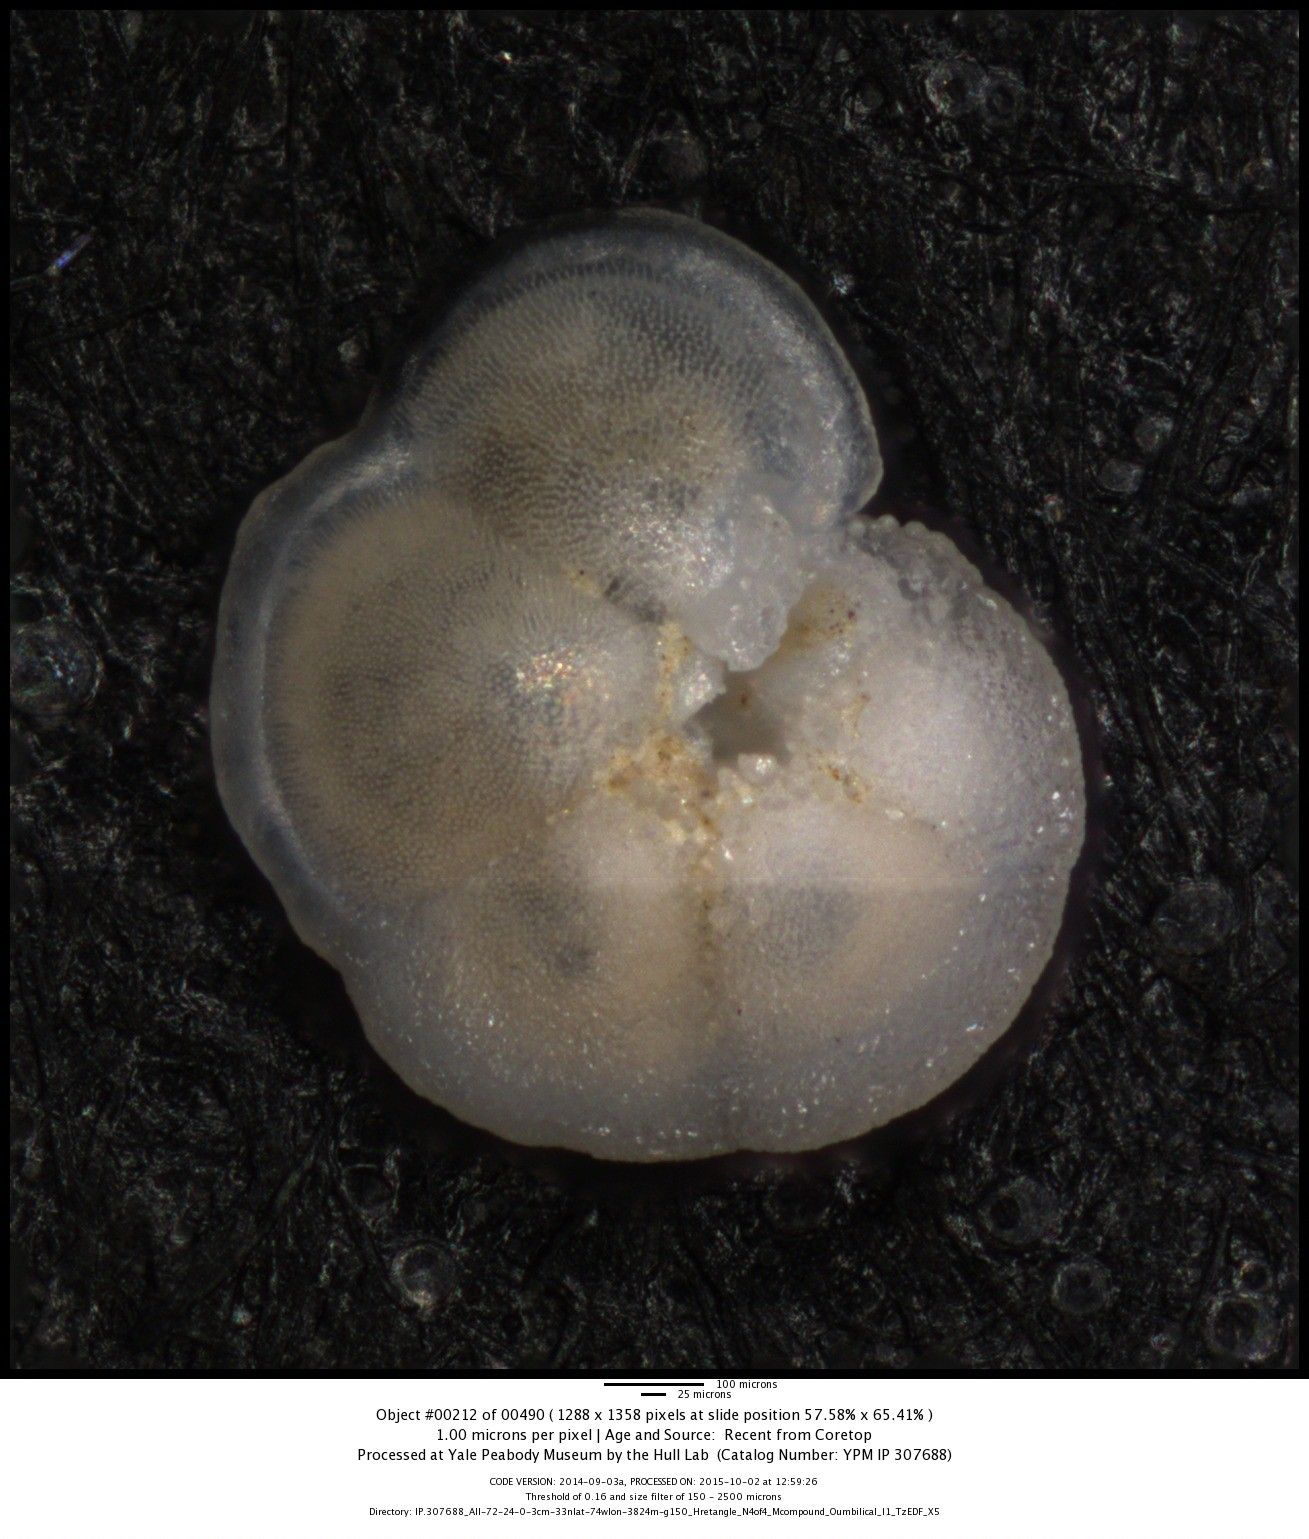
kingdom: Chromista
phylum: Foraminifera
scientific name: Foraminifera
